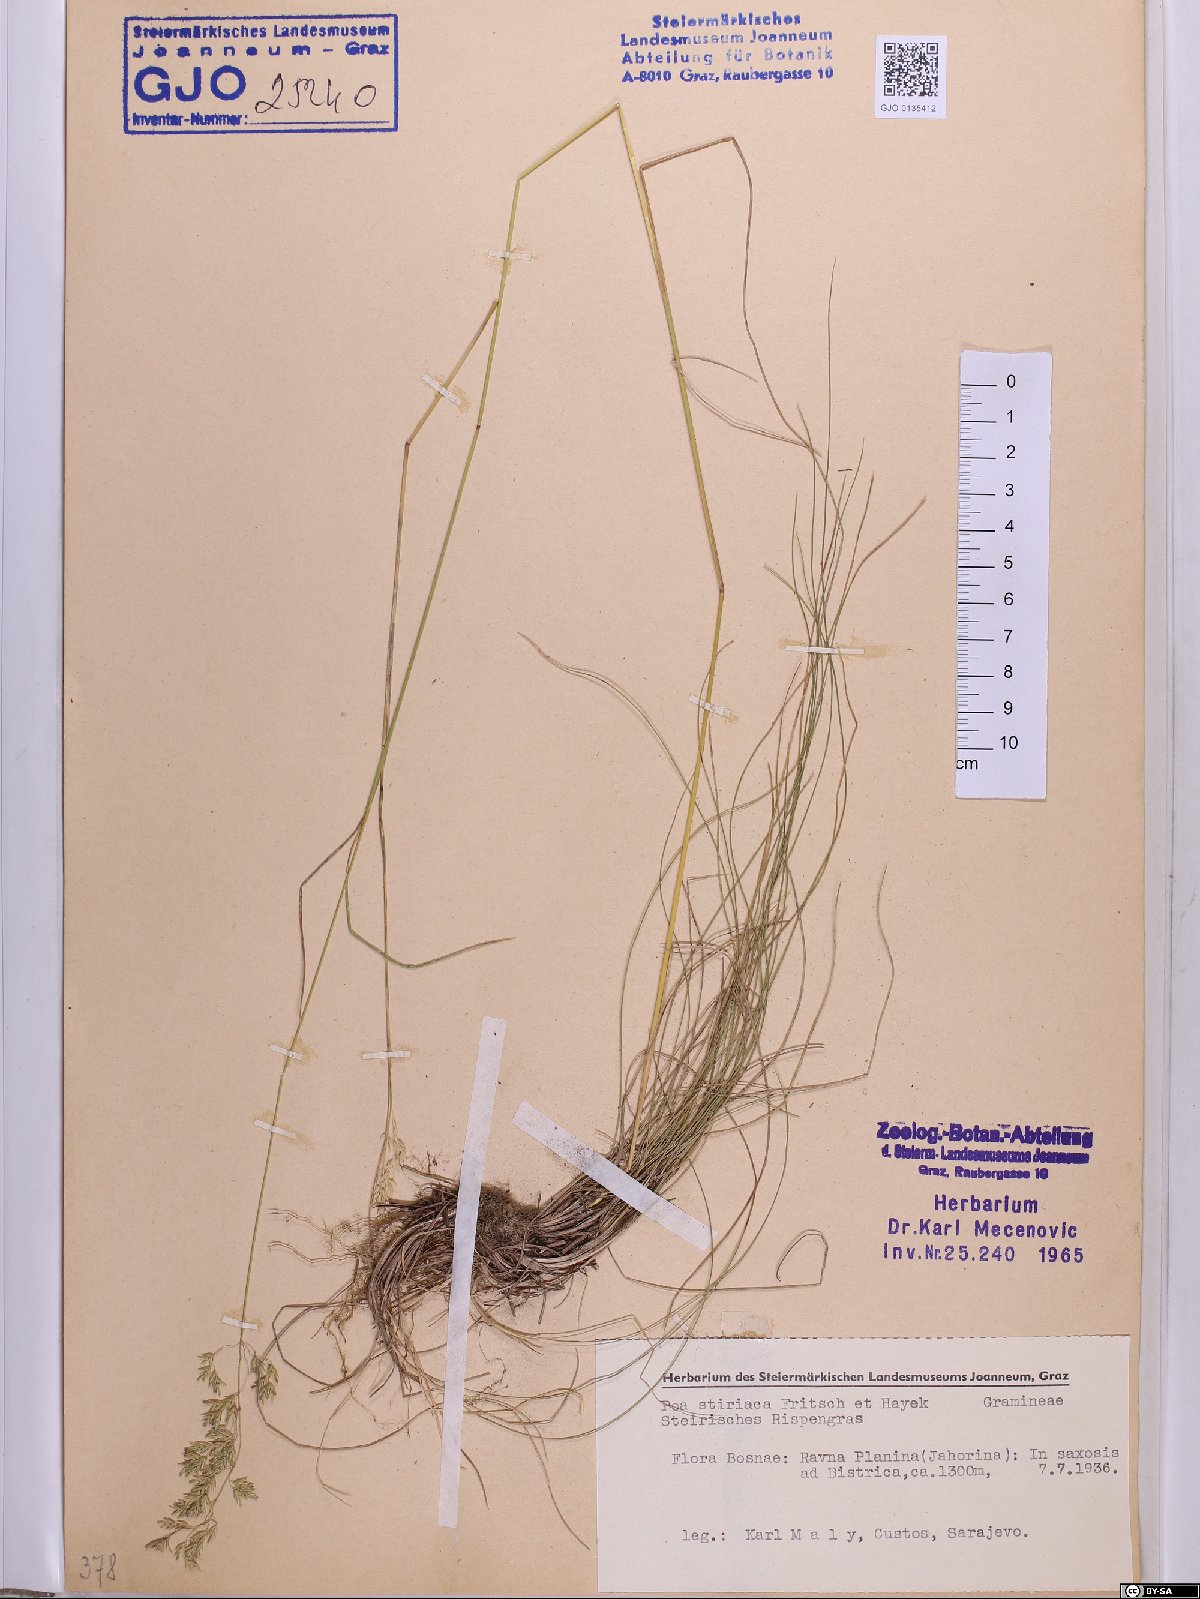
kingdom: Plantae
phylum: Tracheophyta
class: Liliopsida
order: Poales
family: Poaceae
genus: Poa
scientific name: Poa stiriaca
